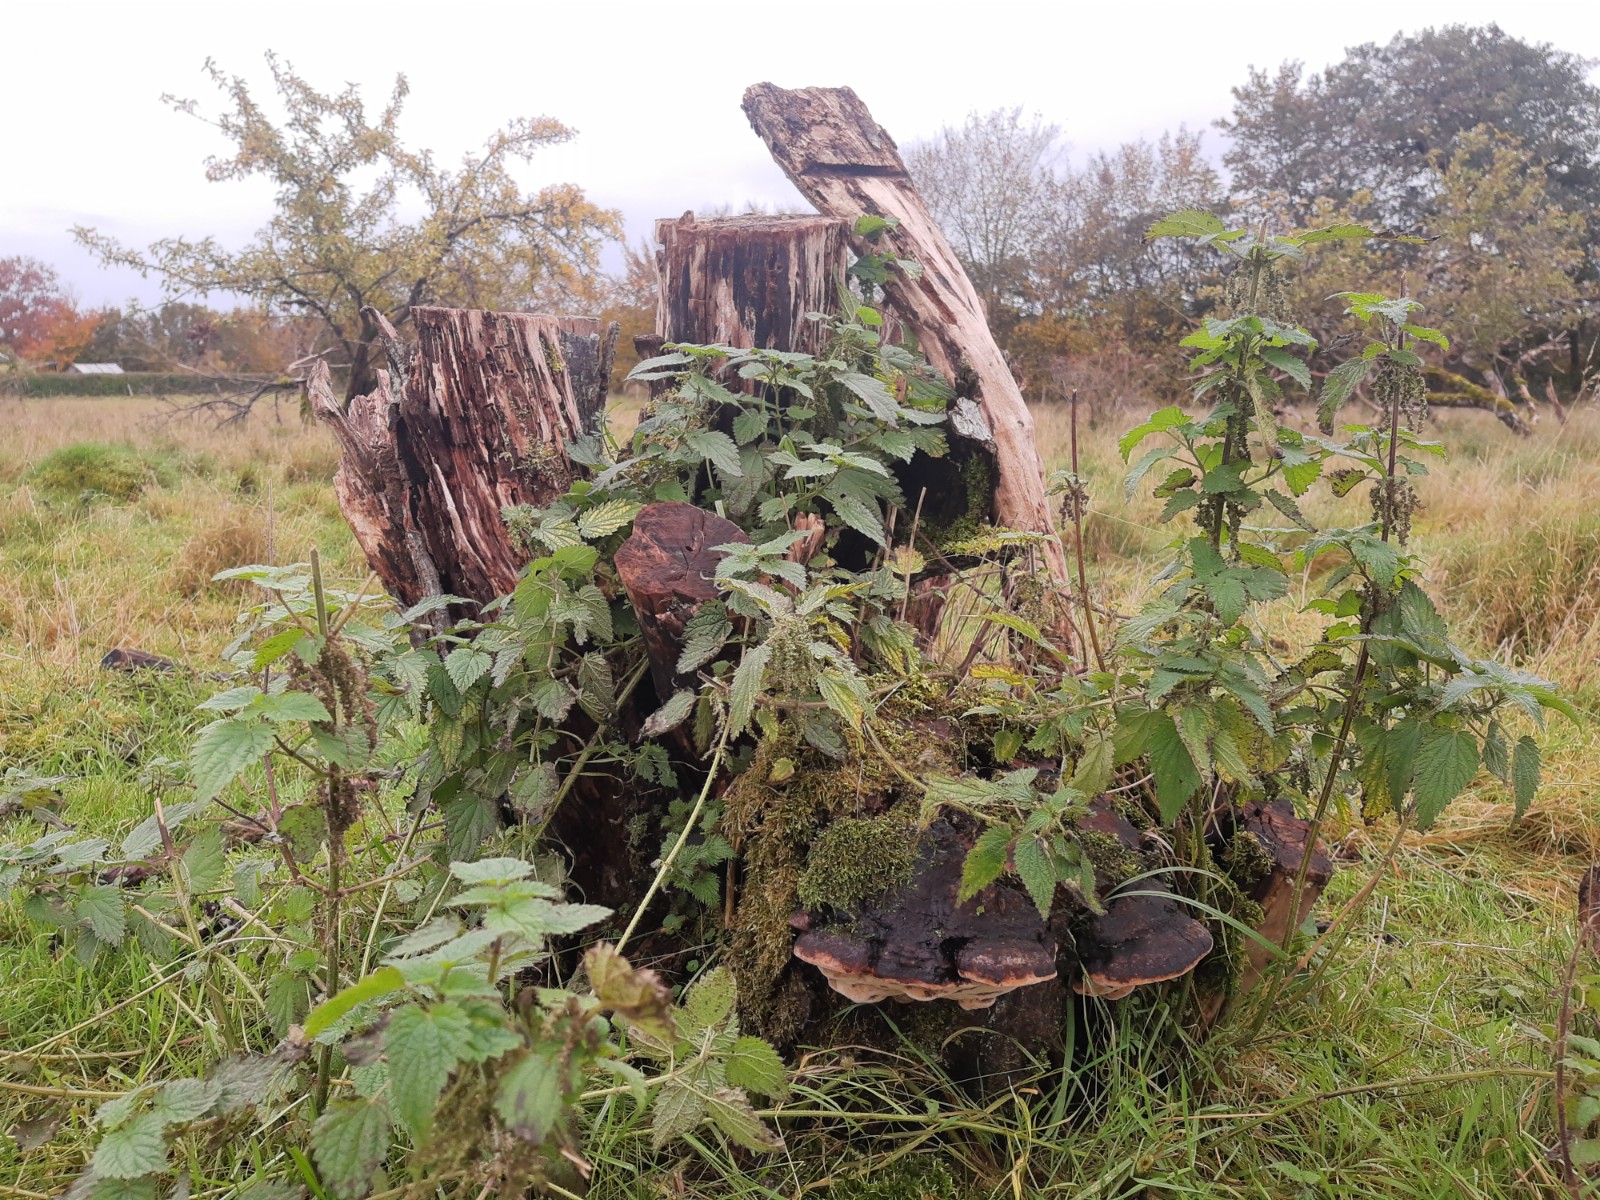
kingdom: Fungi
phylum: Basidiomycota
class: Agaricomycetes
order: Polyporales
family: Fomitopsidaceae
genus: Fomitopsis
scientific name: Fomitopsis pinicola
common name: randbæltet hovporesvamp
